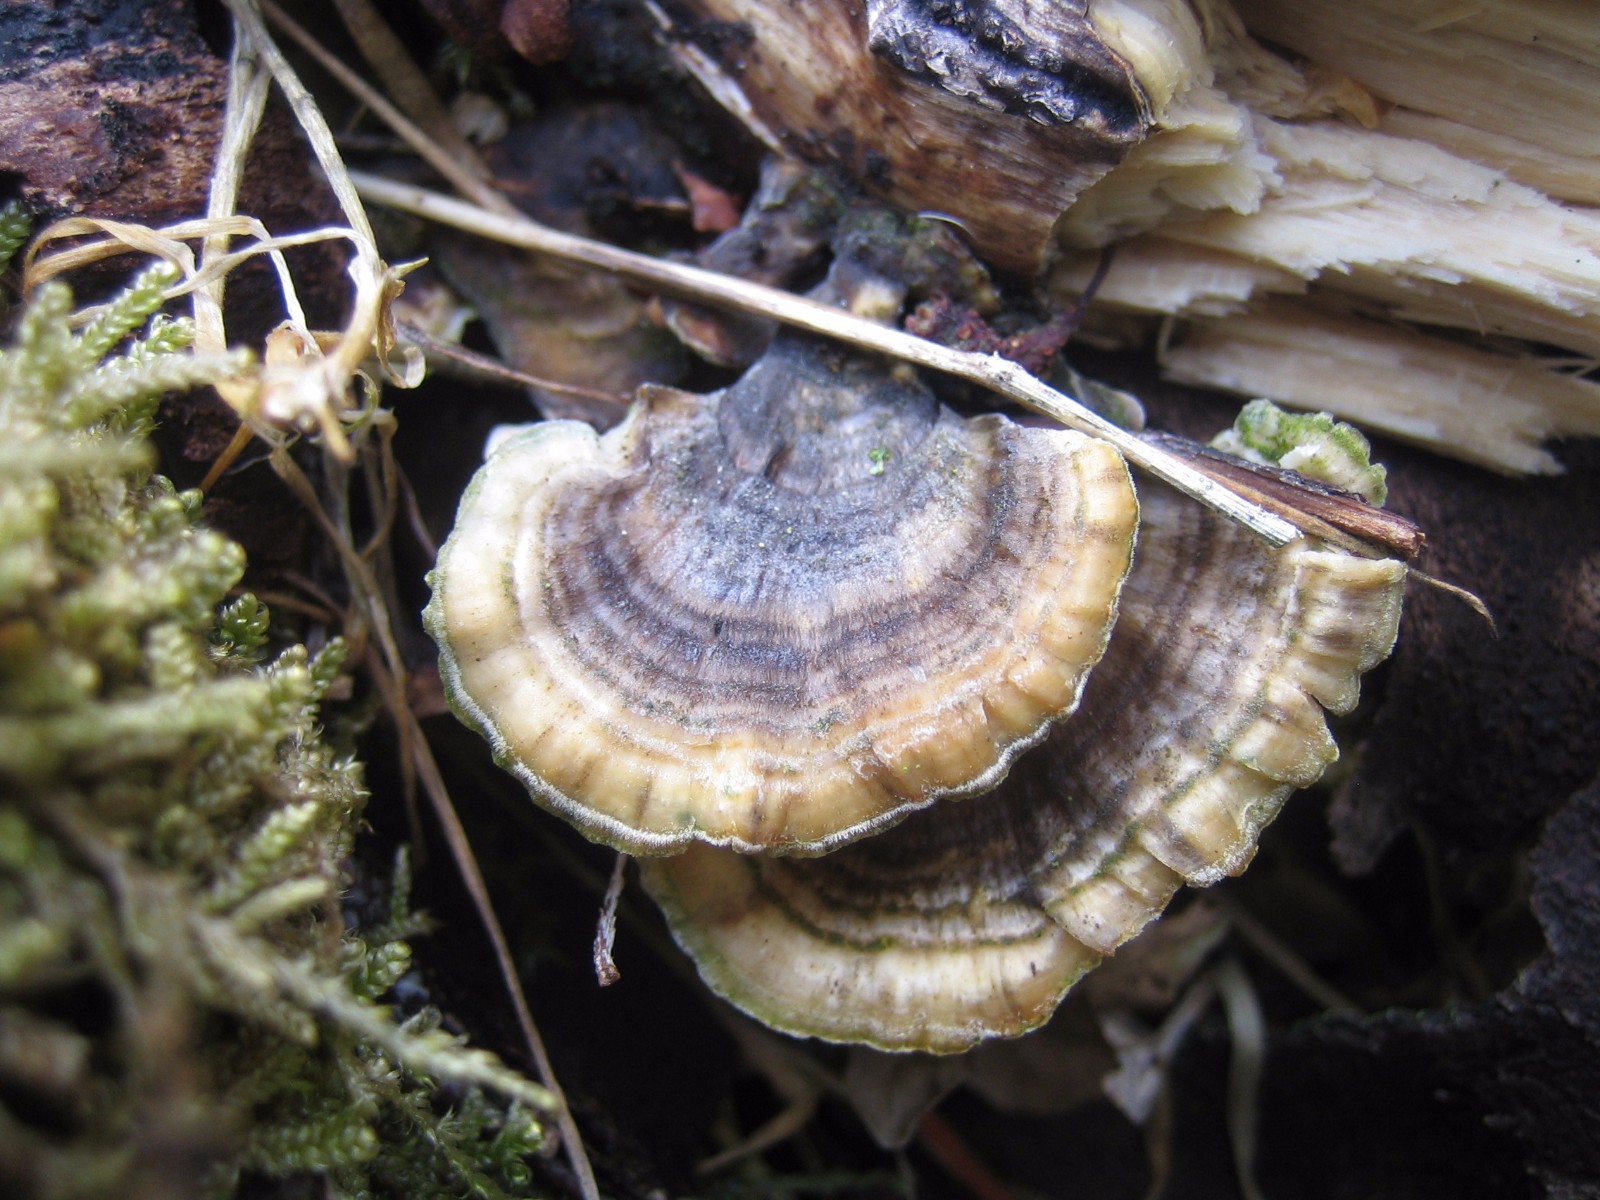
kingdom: Fungi
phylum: Basidiomycota
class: Agaricomycetes
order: Polyporales
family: Polyporaceae
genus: Trametes
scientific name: Trametes versicolor
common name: broget læderporesvamp
